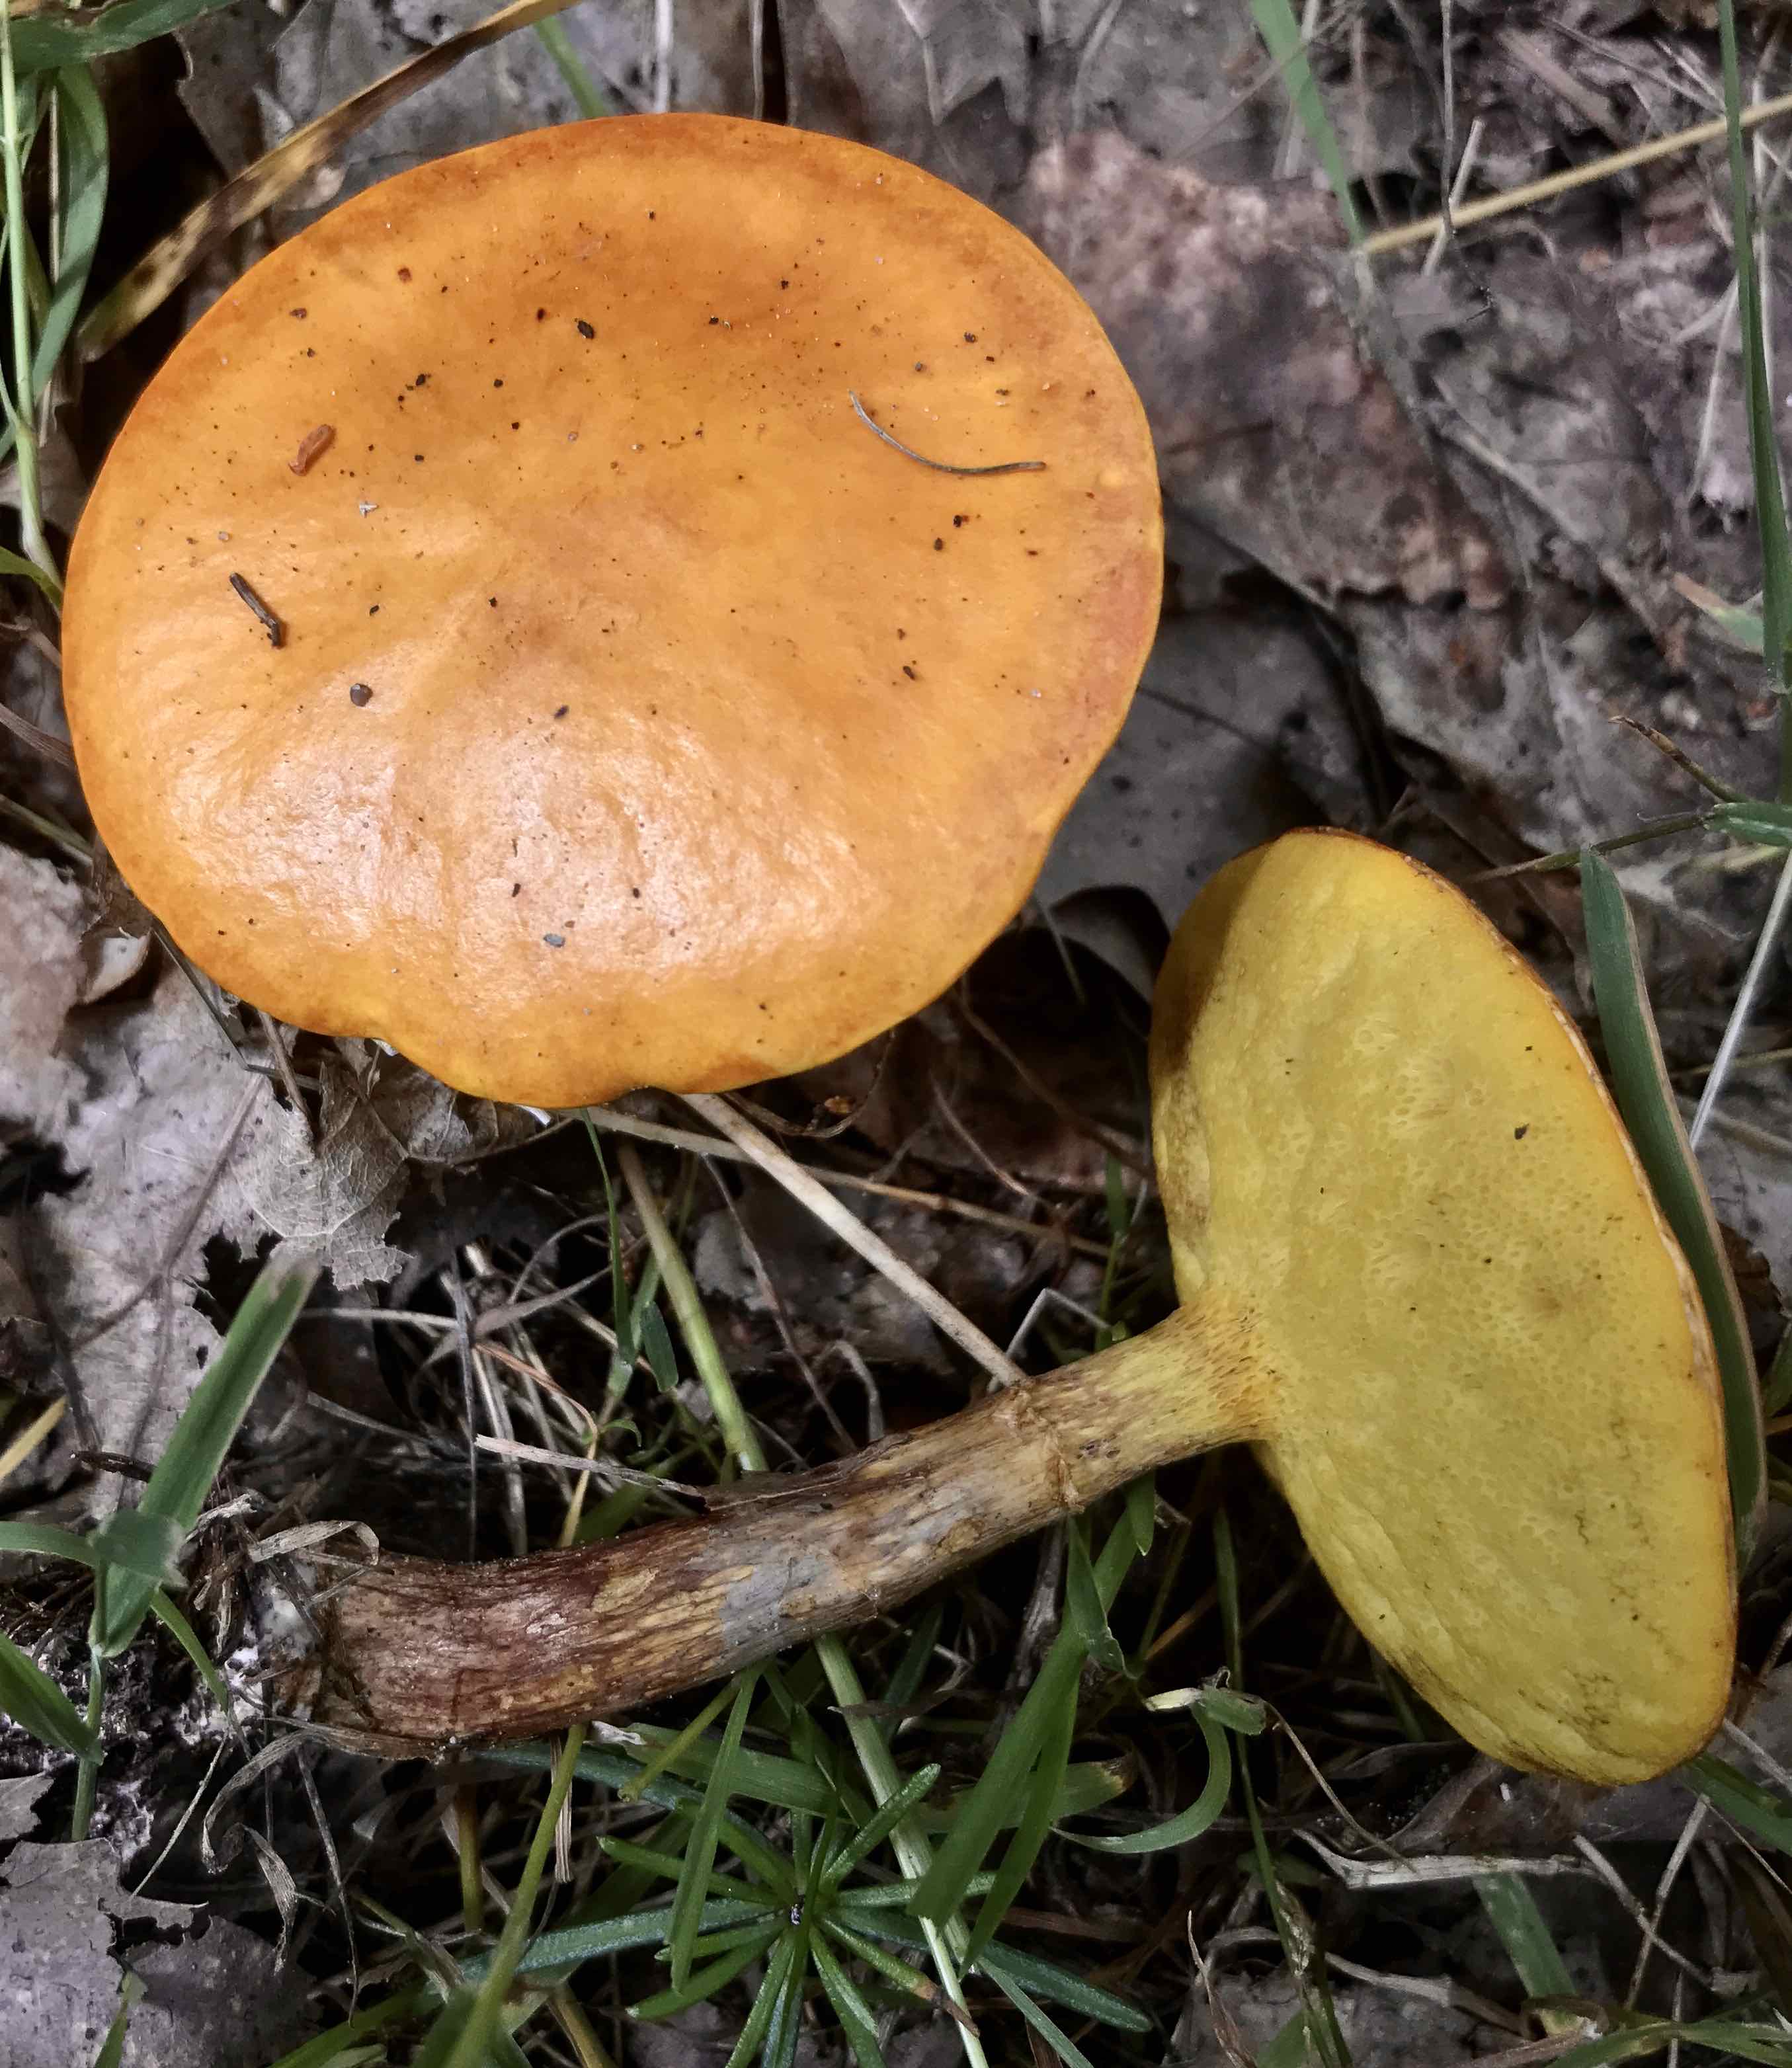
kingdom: Fungi
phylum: Basidiomycota
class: Agaricomycetes
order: Boletales
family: Suillaceae
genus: Suillus
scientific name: Suillus grevillei
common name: lærke-slimrørhat
